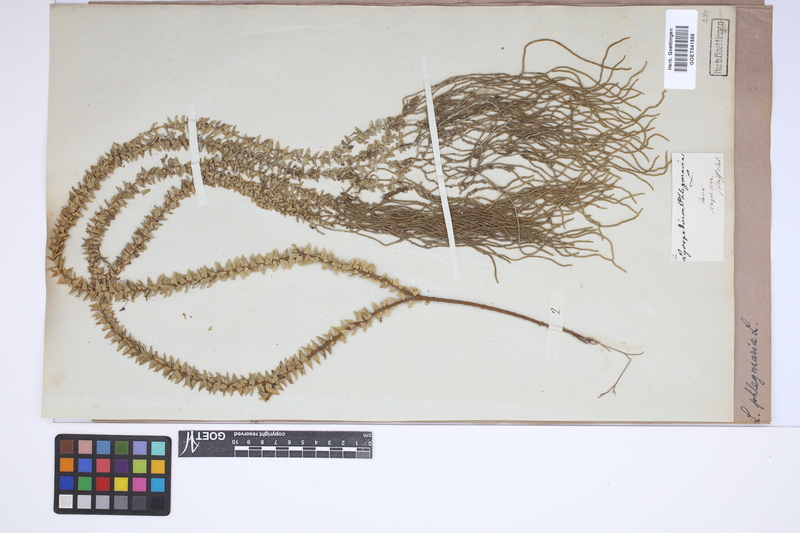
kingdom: Plantae
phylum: Tracheophyta
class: Lycopodiopsida
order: Lycopodiales
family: Lycopodiaceae
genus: Phlegmariurus
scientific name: Phlegmariurus phlegmaria
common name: Coarse tassel-fern
